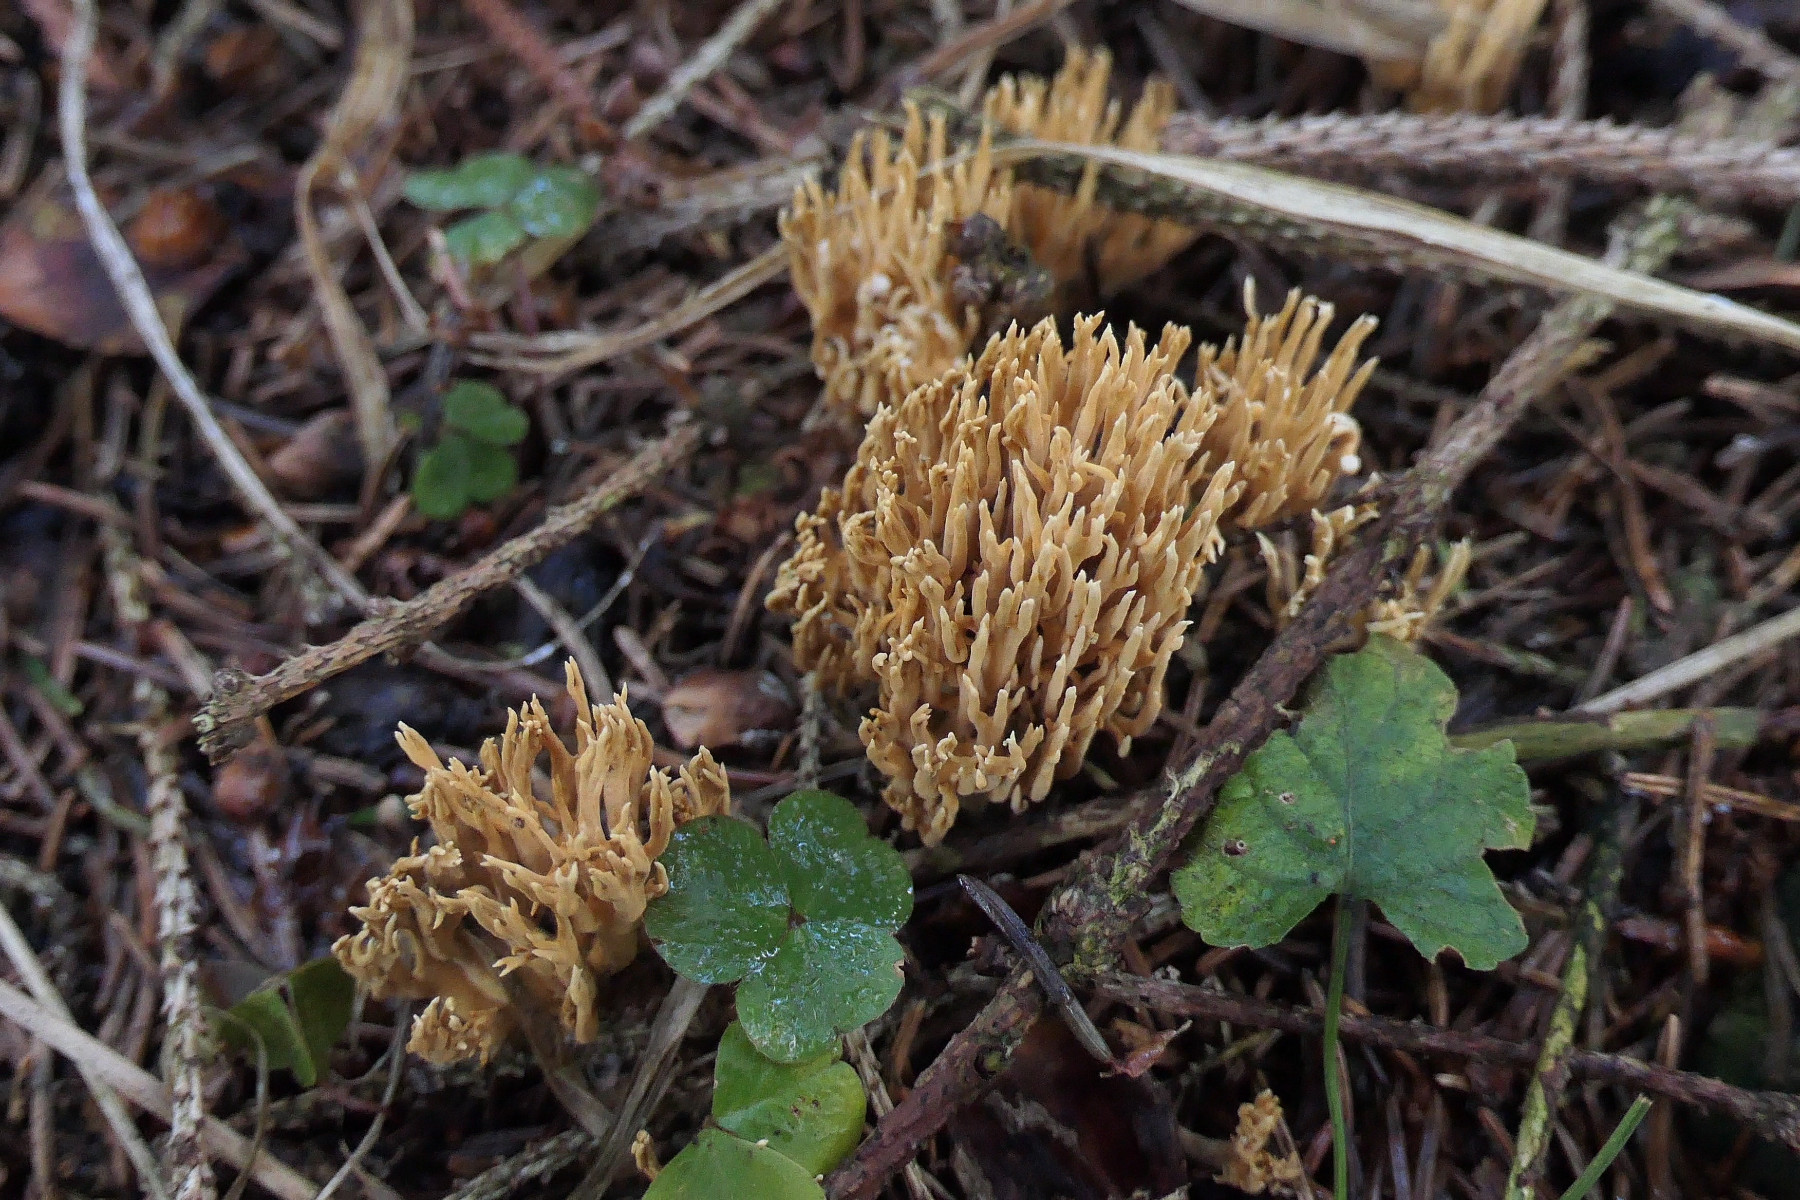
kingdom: Fungi
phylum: Basidiomycota
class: Agaricomycetes
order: Gomphales
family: Gomphaceae
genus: Phaeoclavulina
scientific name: Phaeoclavulina eumorpha
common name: gran-koralsvamp
